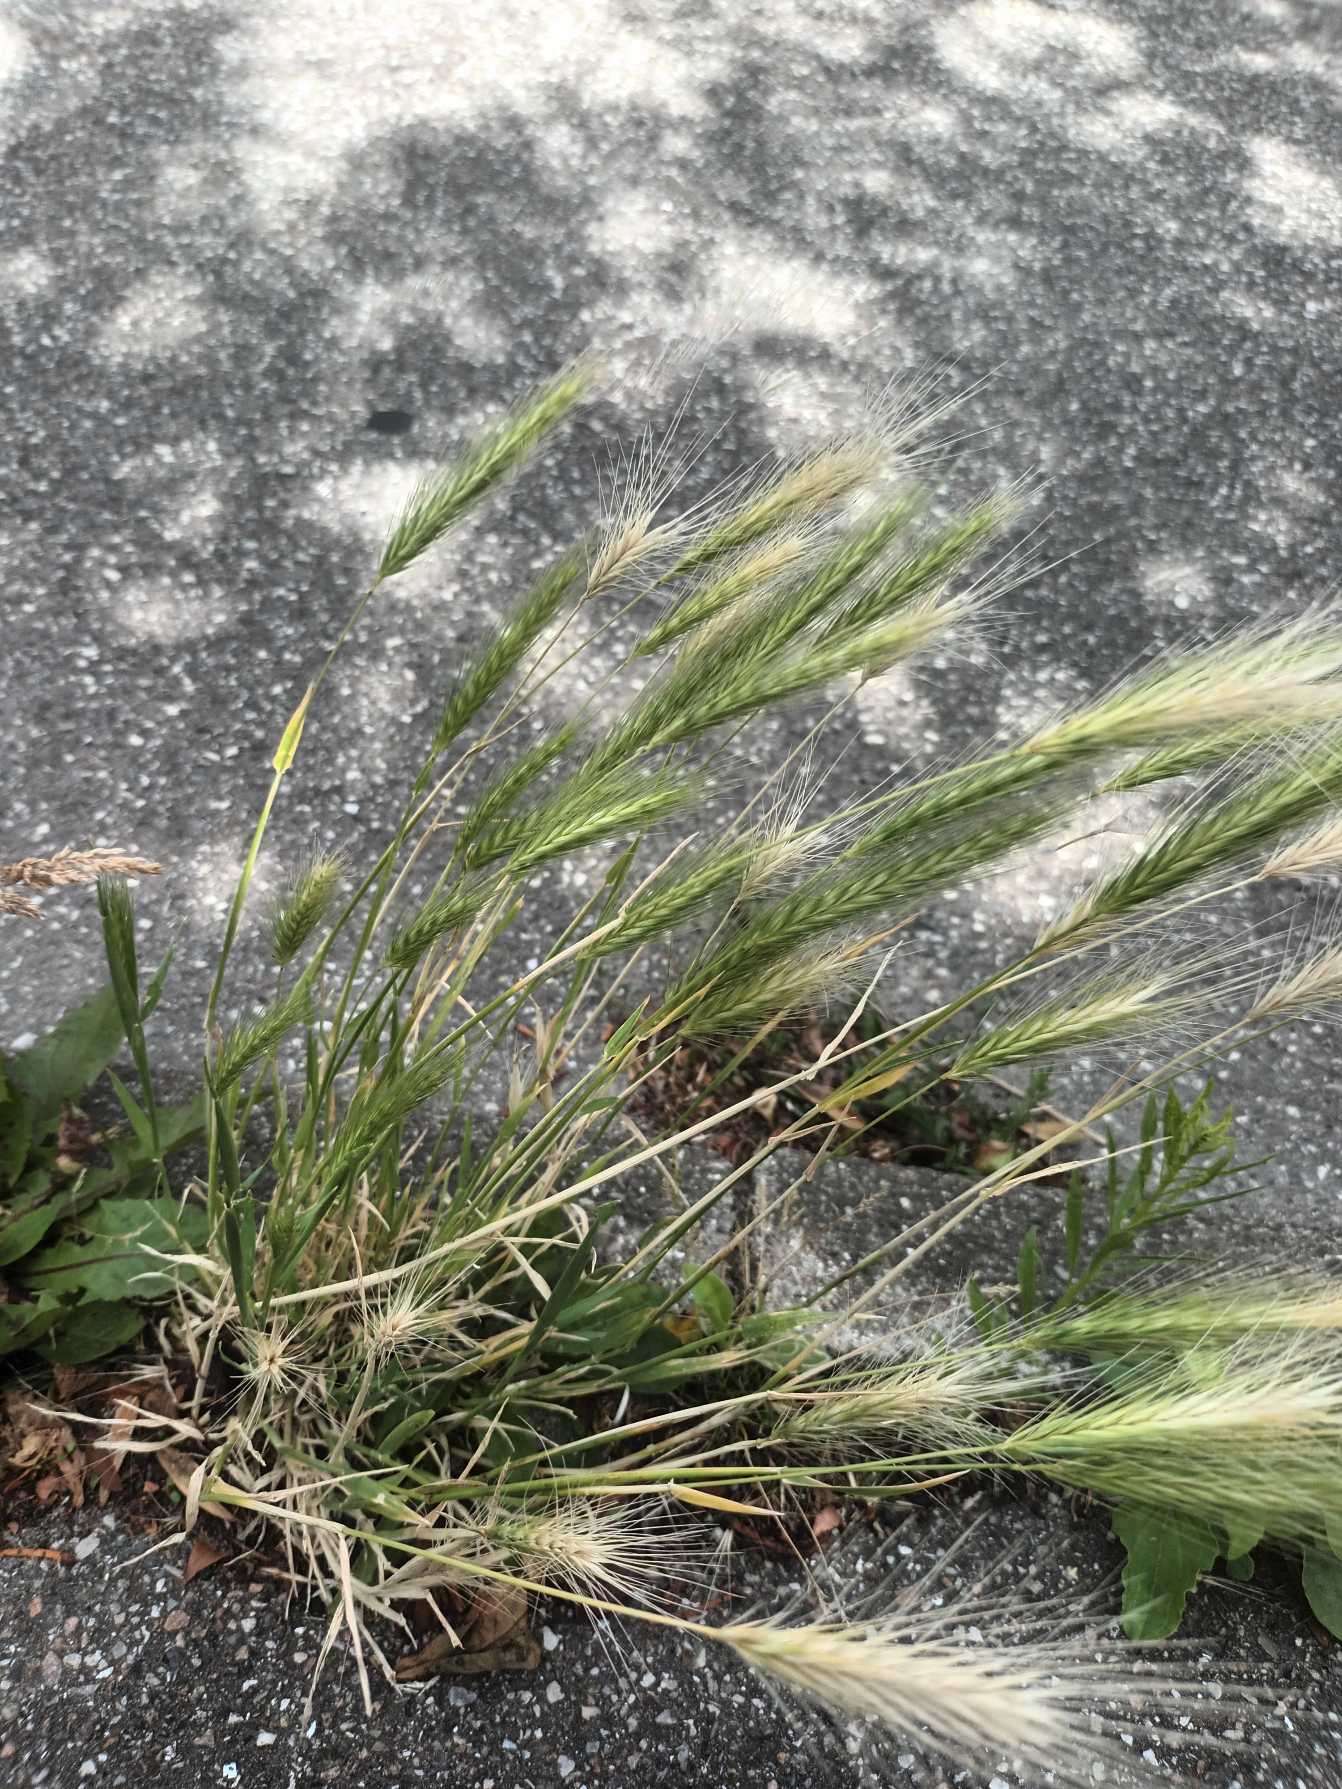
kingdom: Plantae
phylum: Tracheophyta
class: Liliopsida
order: Poales
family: Poaceae
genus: Hordeum
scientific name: Hordeum murinum
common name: Gold byg
